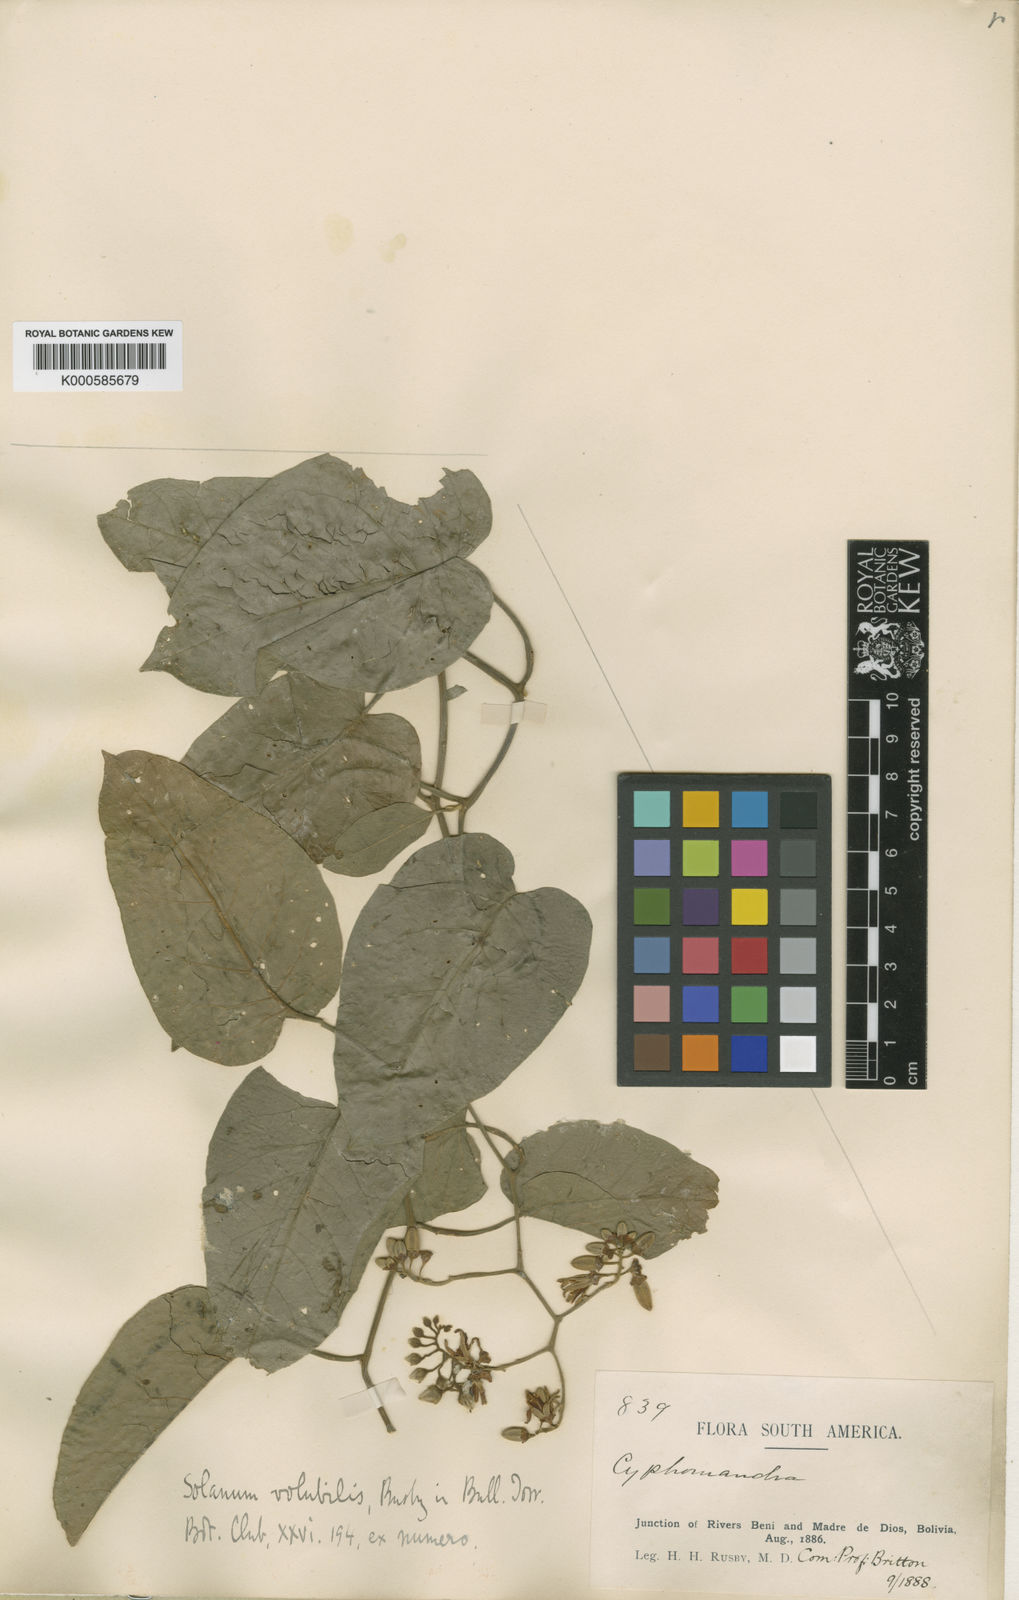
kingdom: Plantae
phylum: Tracheophyta
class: Magnoliopsida
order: Solanales
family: Solanaceae
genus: Solanum
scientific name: Solanum
